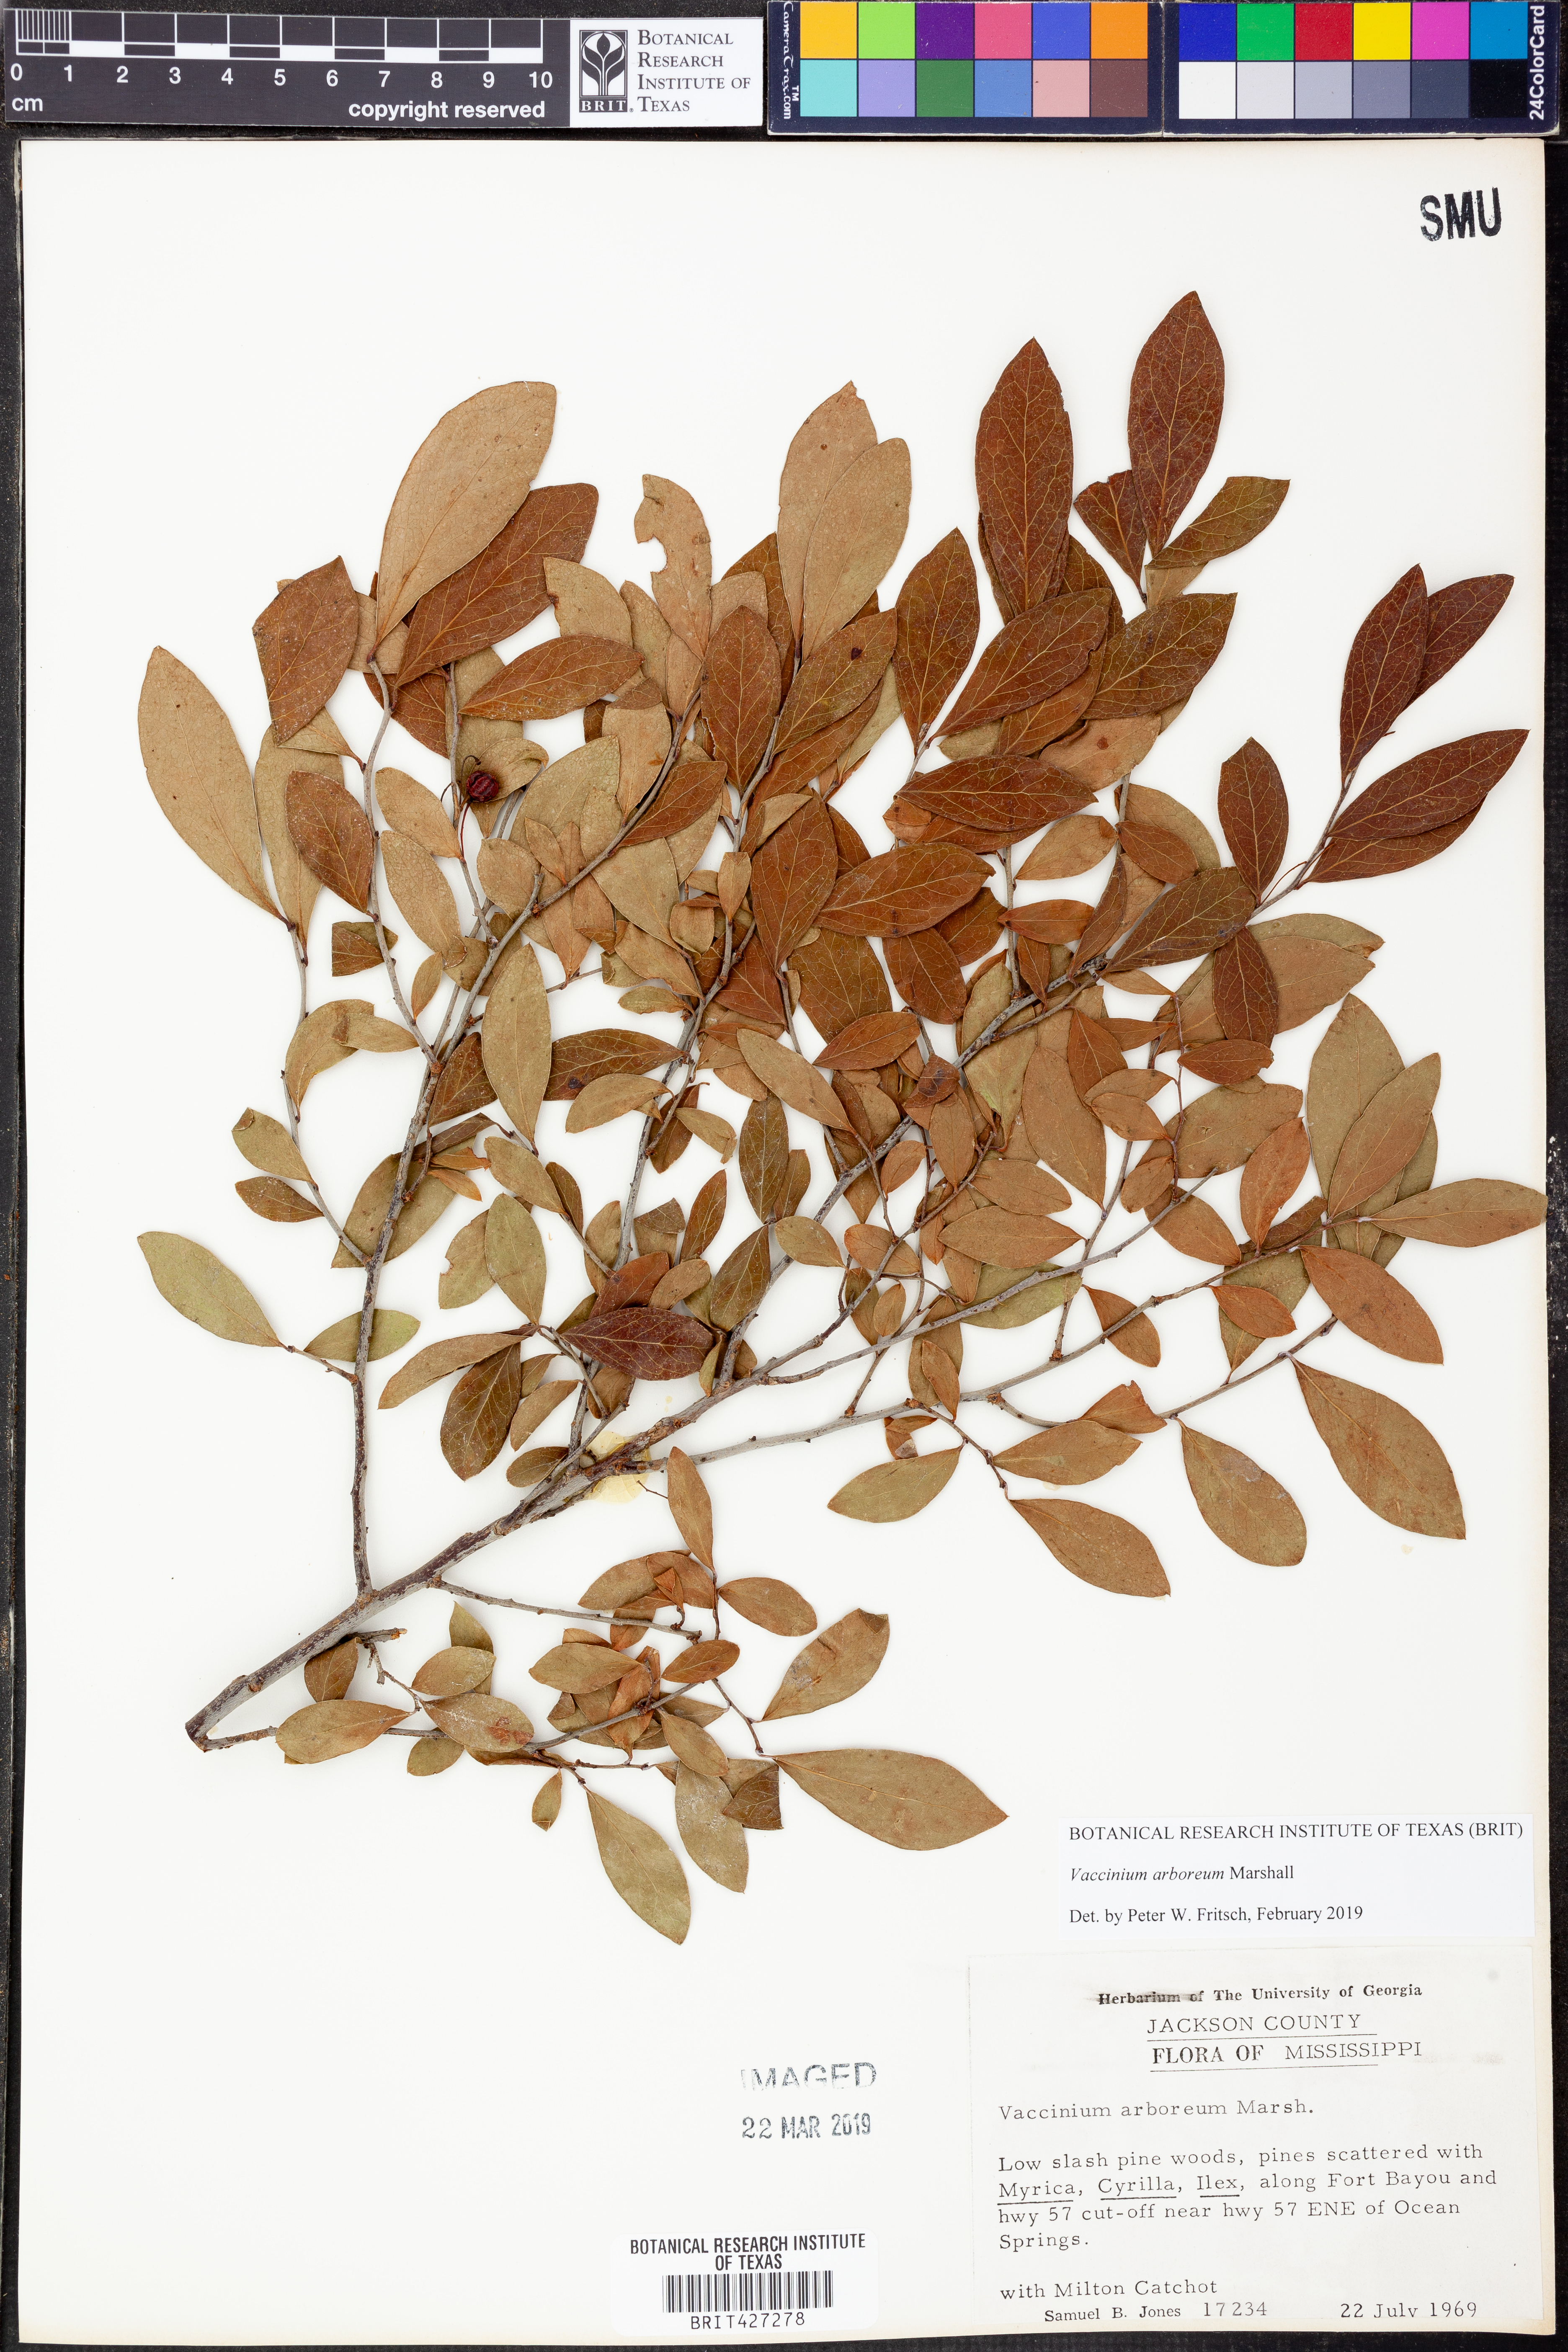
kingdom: Plantae
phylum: Tracheophyta
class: Magnoliopsida
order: Ericales
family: Ericaceae
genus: Vaccinium
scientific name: Vaccinium arboreum
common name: Farkleberry
